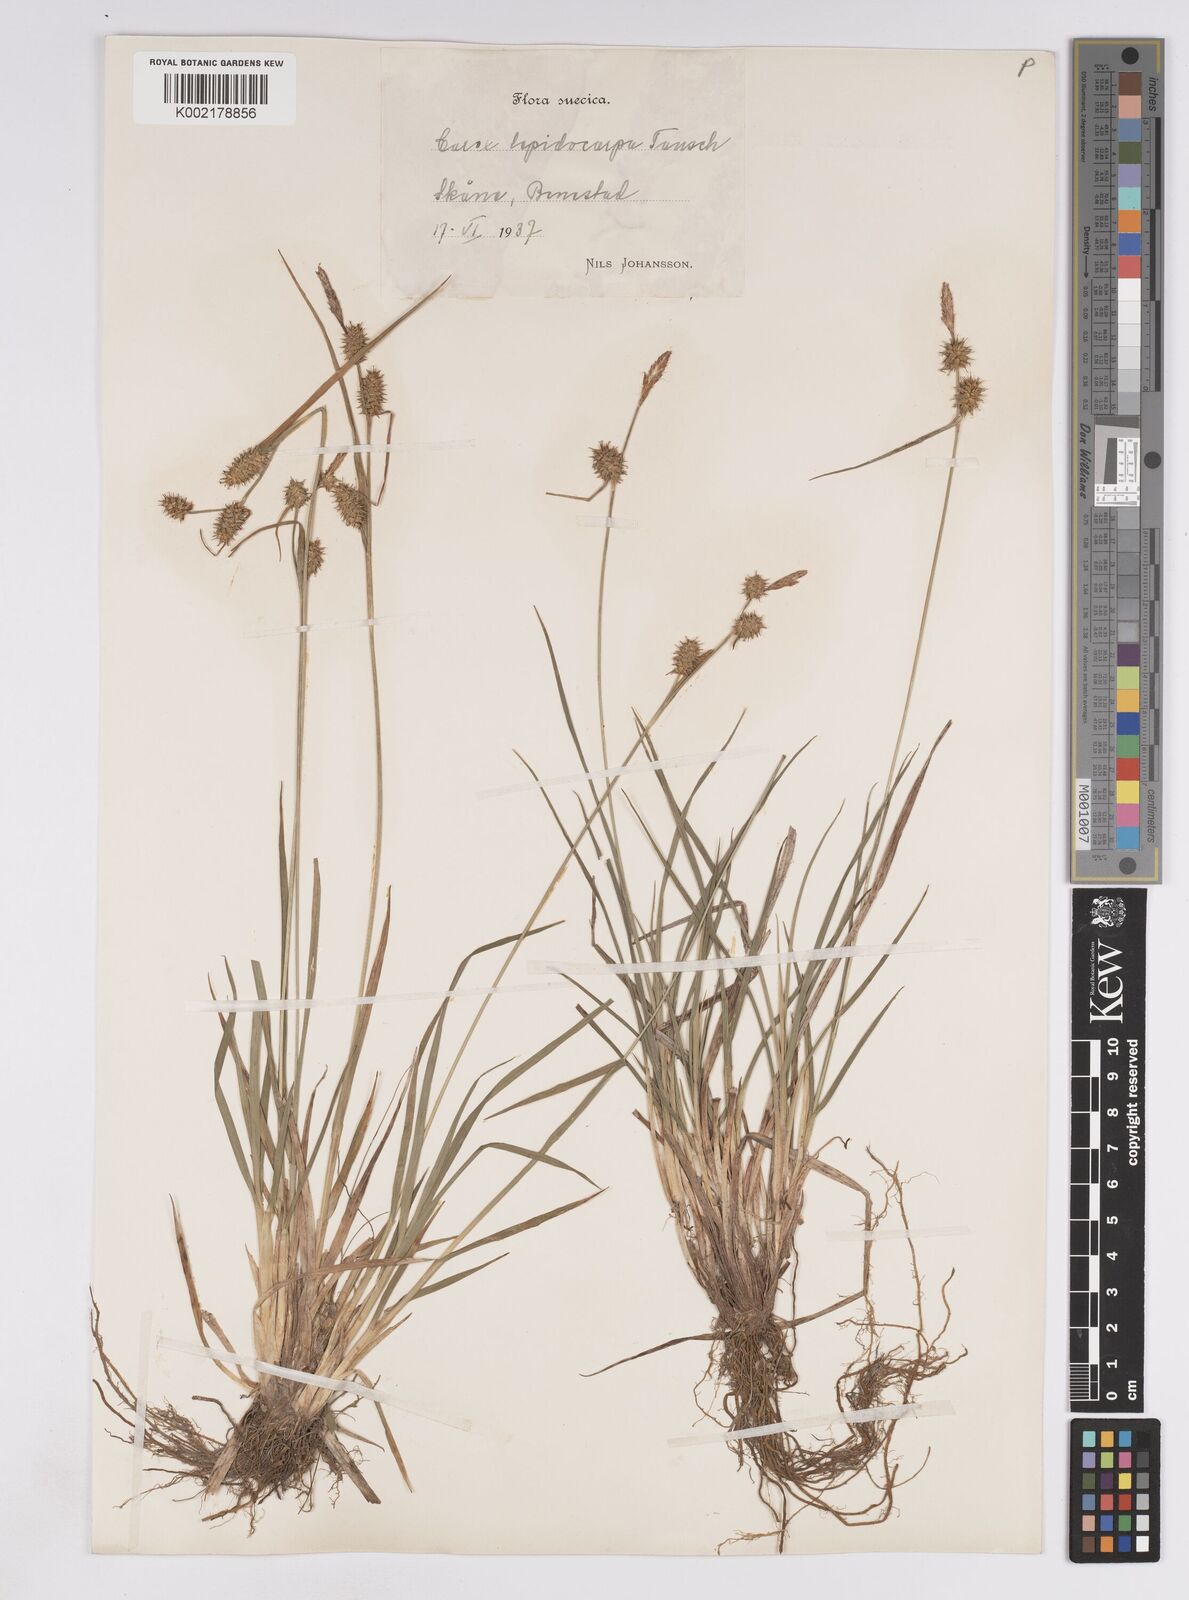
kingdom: Plantae
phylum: Tracheophyta
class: Liliopsida
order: Poales
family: Cyperaceae
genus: Carex
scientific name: Carex lepidocarpa
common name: Long-stalked yellow-sedge
